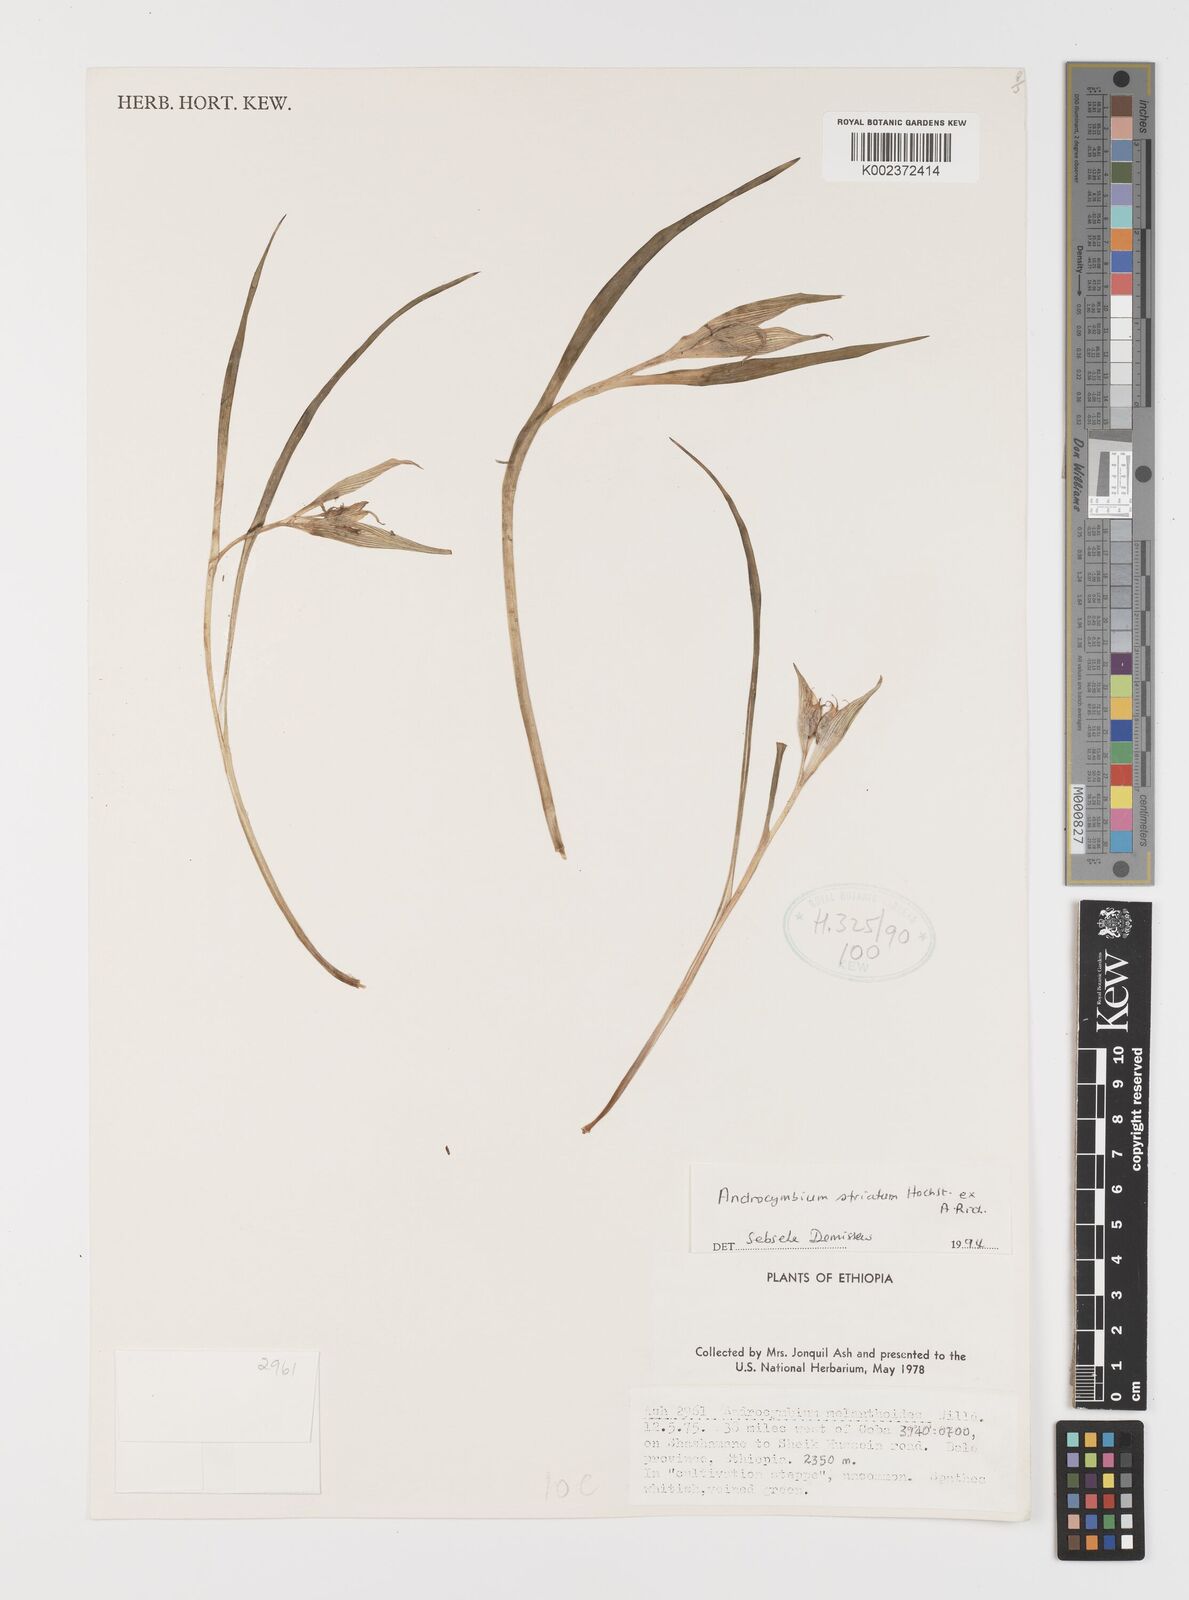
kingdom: Plantae
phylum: Tracheophyta
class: Liliopsida
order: Liliales
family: Colchicaceae
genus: Colchicum
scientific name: Colchicum striatum
